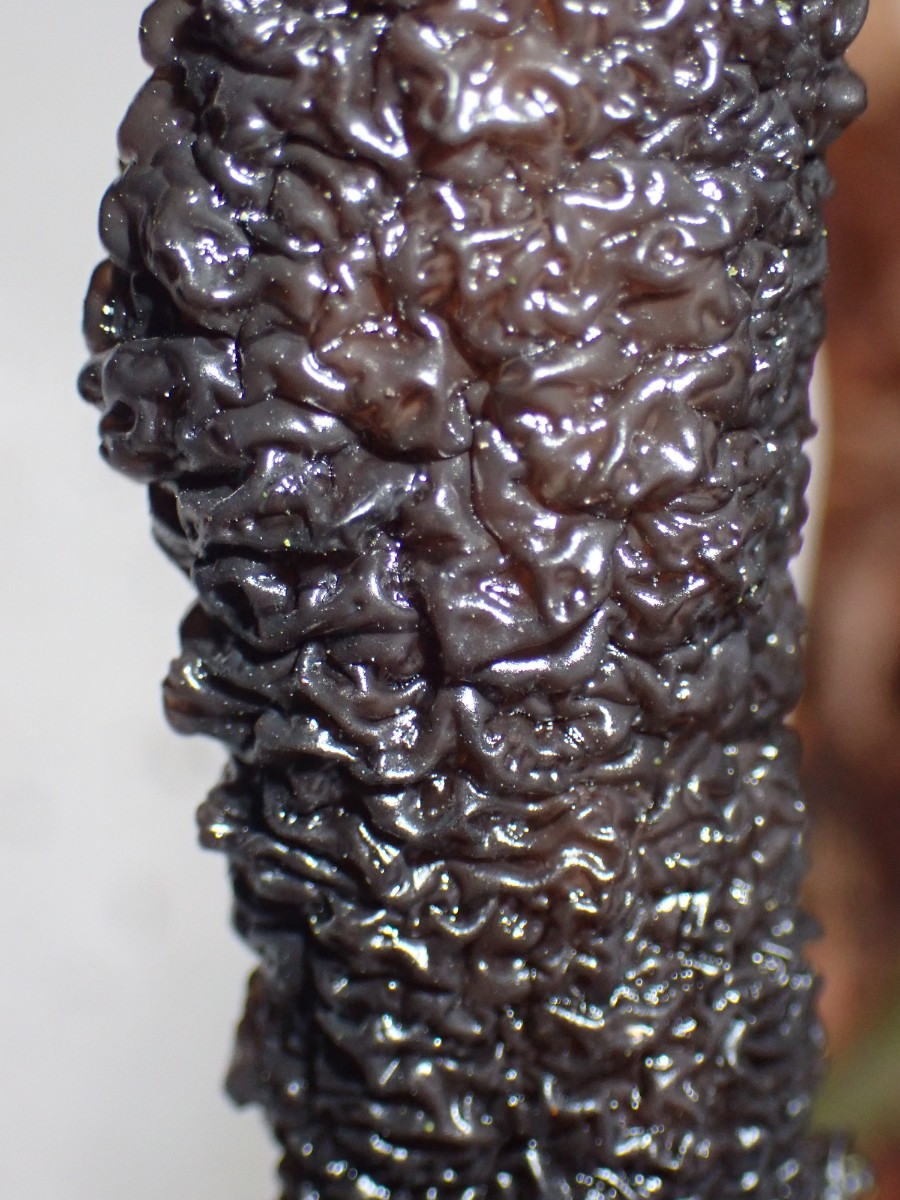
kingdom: Fungi
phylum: Basidiomycota
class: Agaricomycetes
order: Auriculariales
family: Auriculariaceae
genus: Exidia
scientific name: Exidia nigricans
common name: almindelig bævretop
